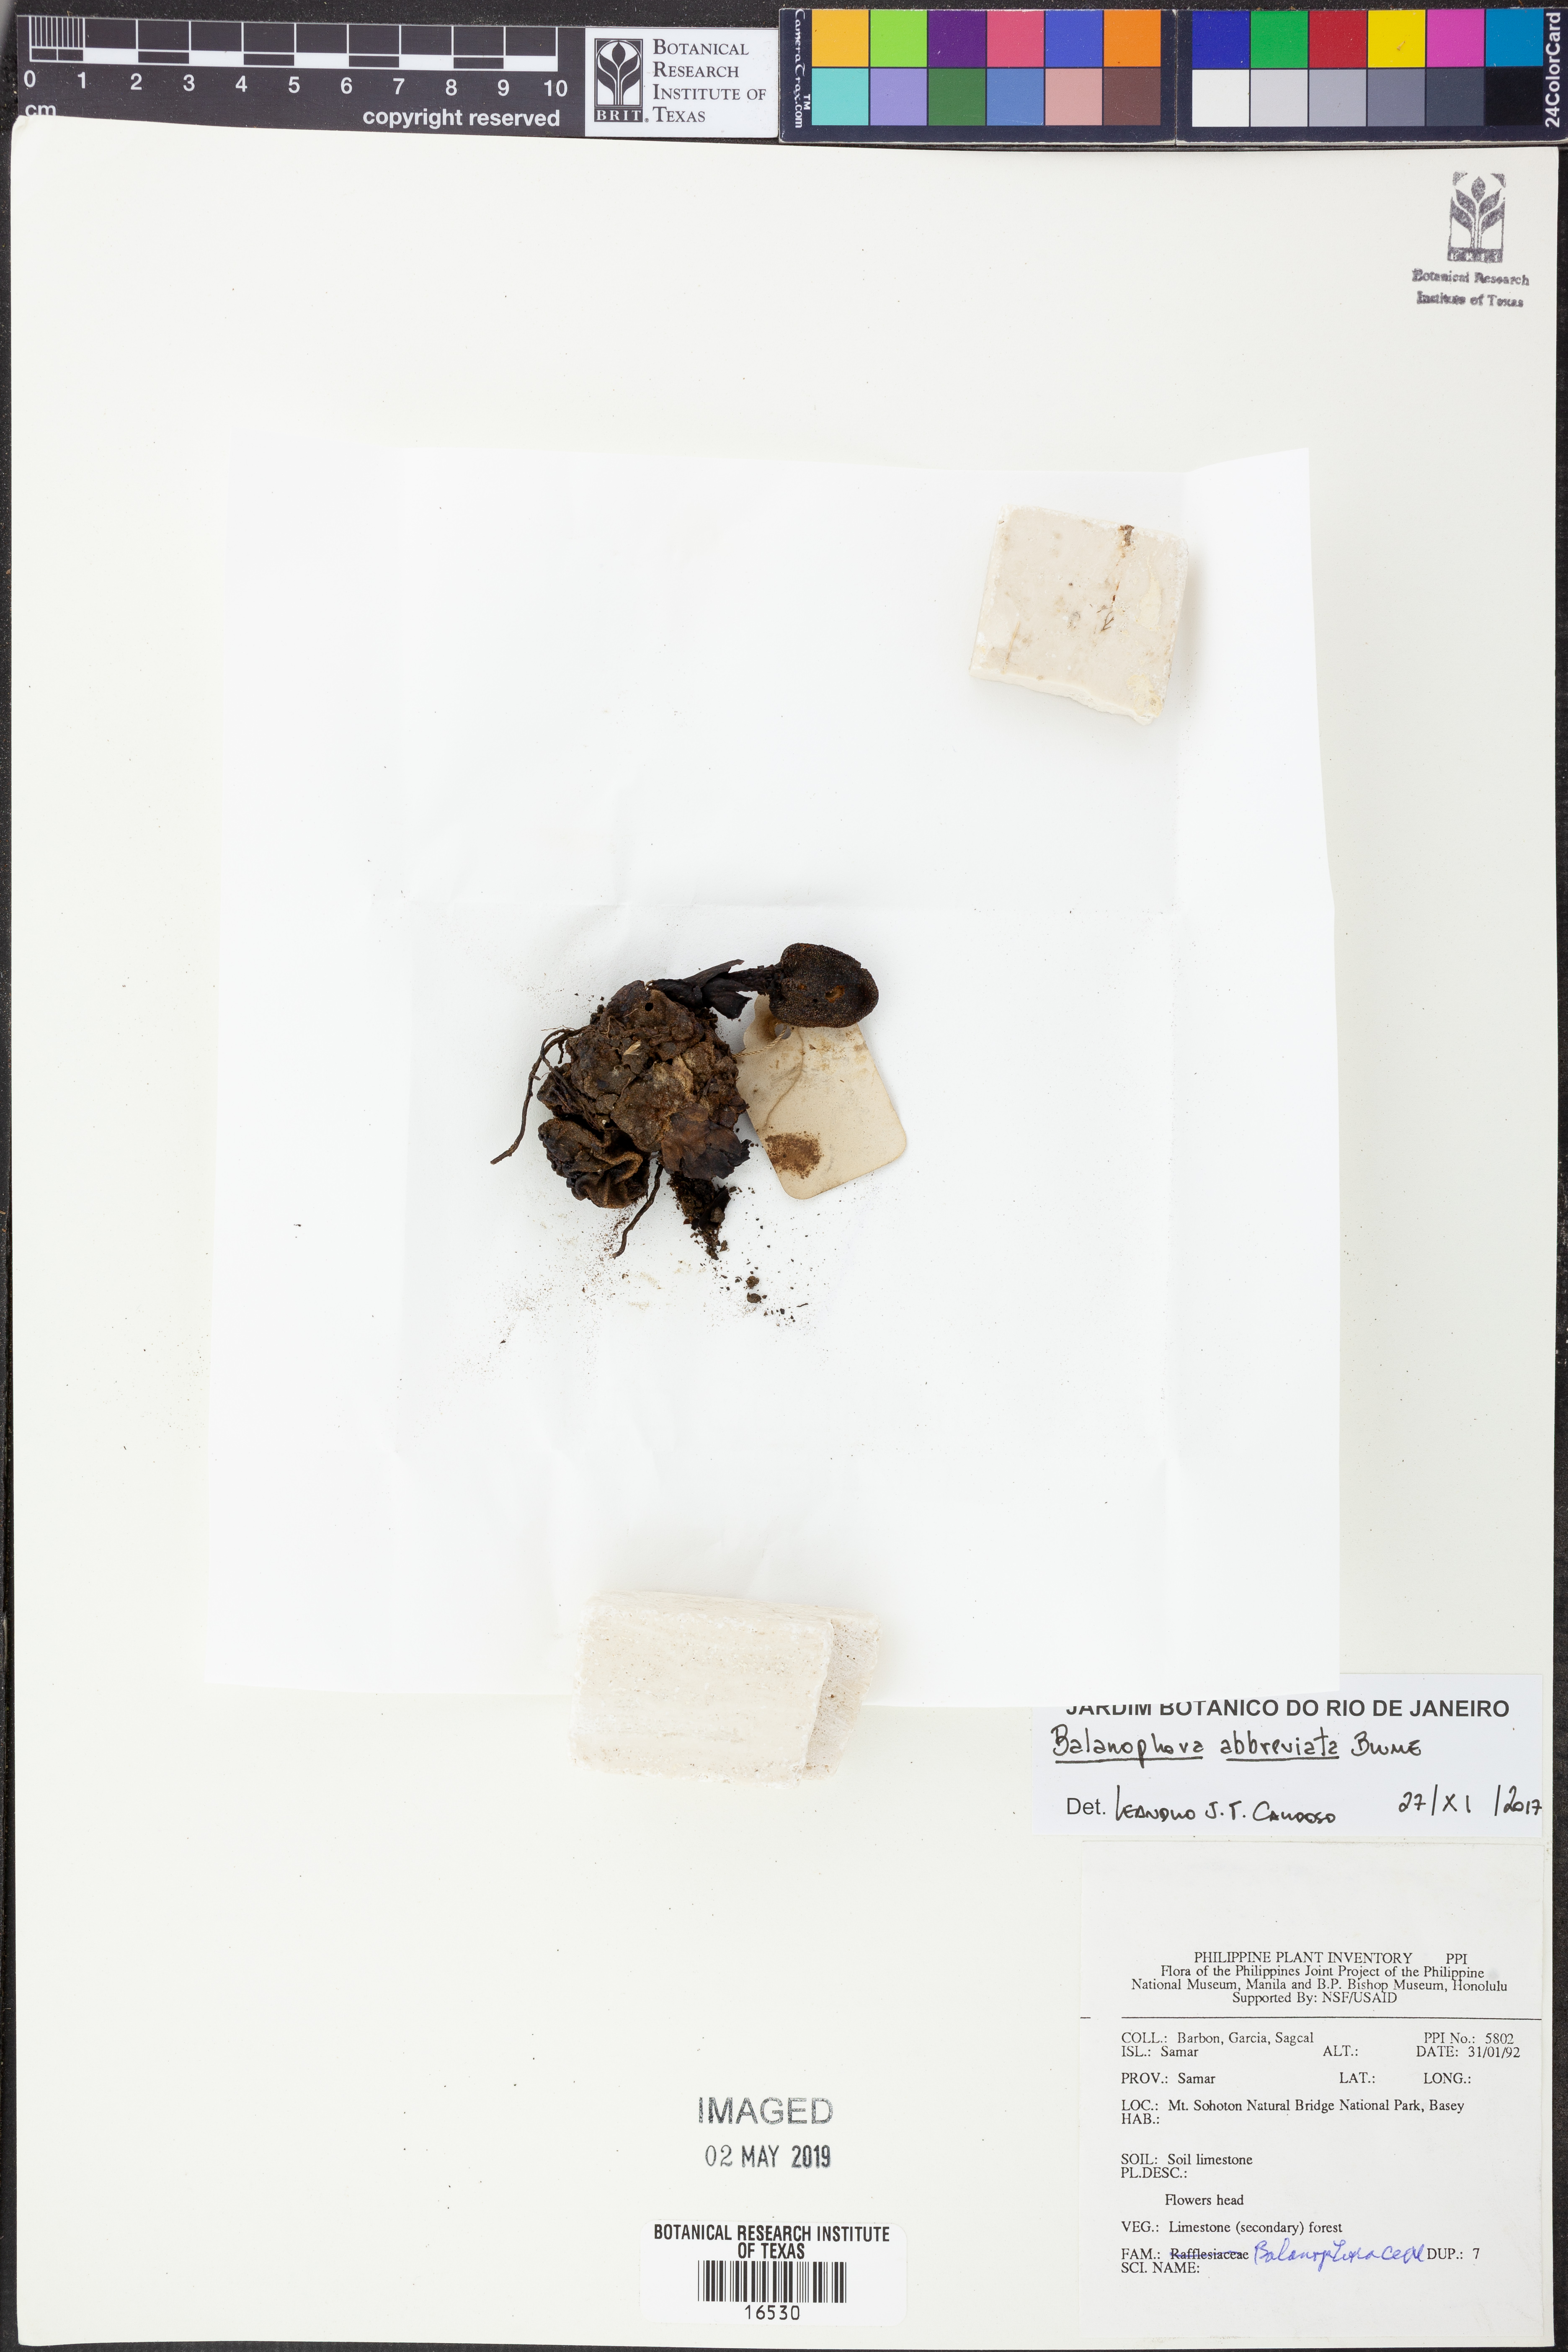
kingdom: Plantae
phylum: Tracheophyta
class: Magnoliopsida
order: Santalales
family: Balanophoraceae
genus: Balanophora
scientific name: Balanophora abbreviata
